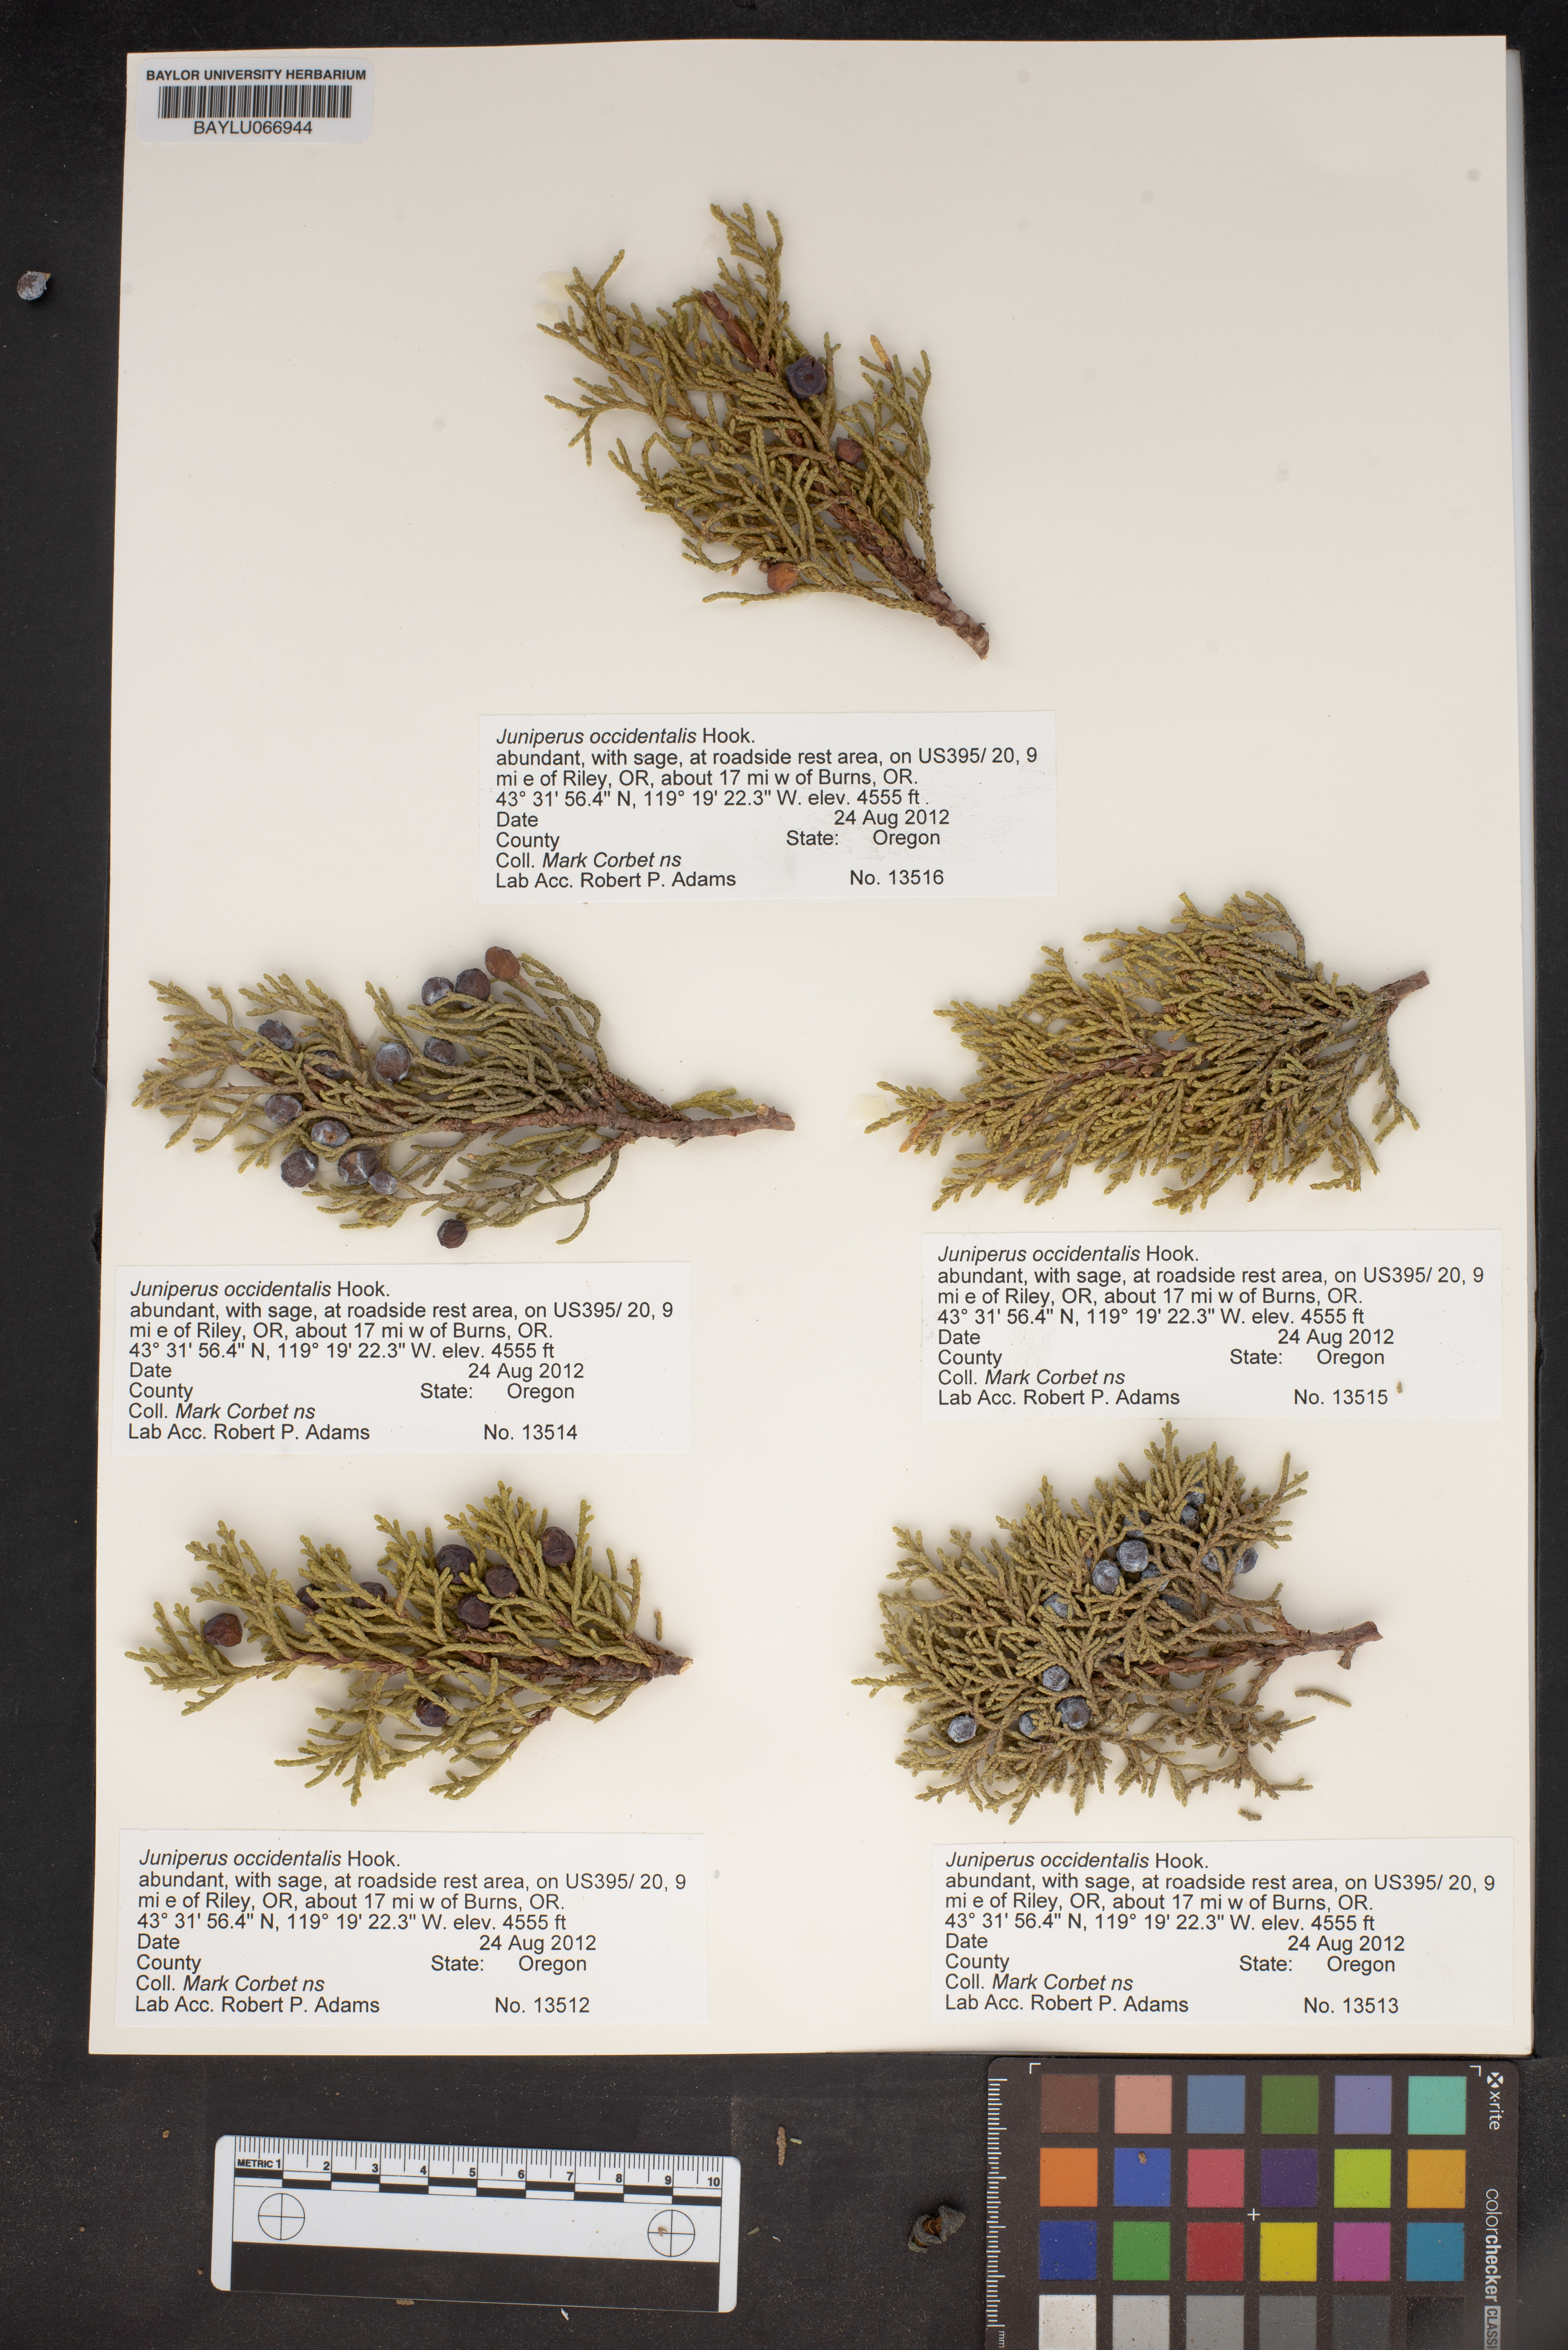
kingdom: Plantae
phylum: Tracheophyta
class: Pinopsida
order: Pinales
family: Cupressaceae
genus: Juniperus
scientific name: Juniperus occidentalis
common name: Western juniper
